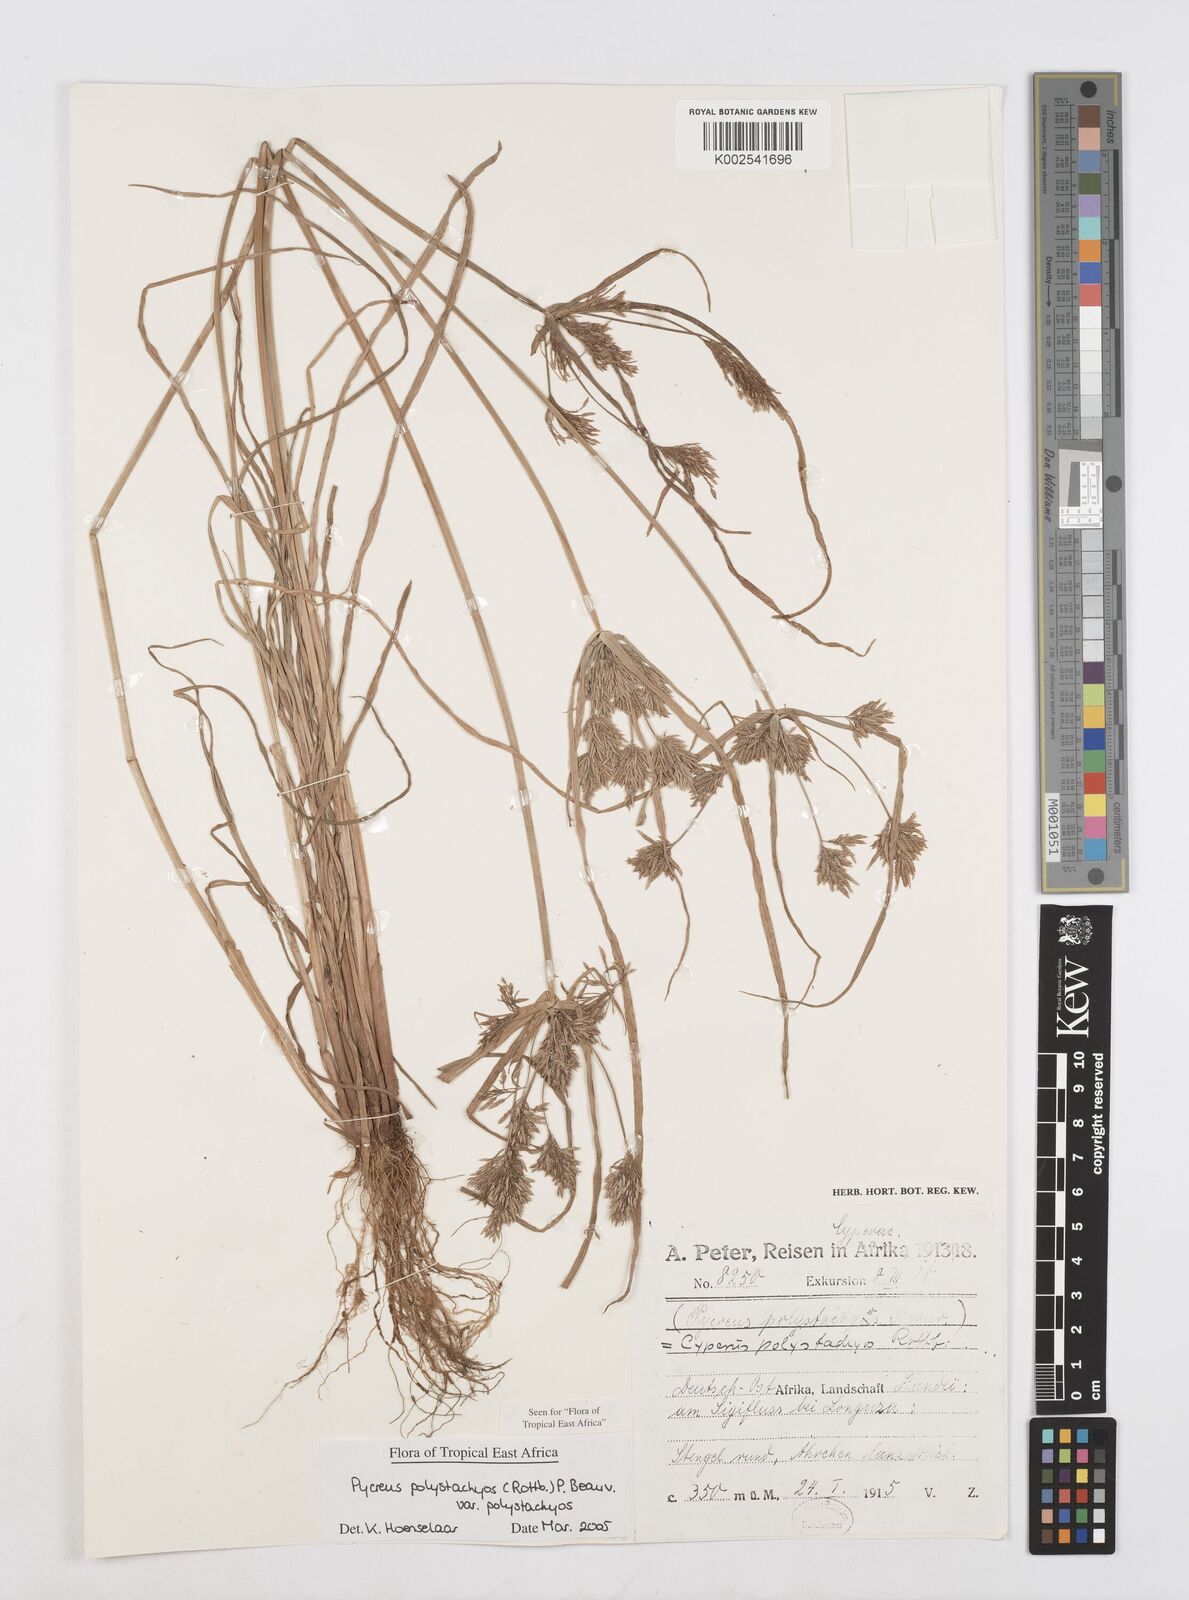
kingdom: Plantae
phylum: Tracheophyta
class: Liliopsida
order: Poales
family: Cyperaceae
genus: Cyperus
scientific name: Cyperus polystachyos
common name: Bunchy flat sedge
